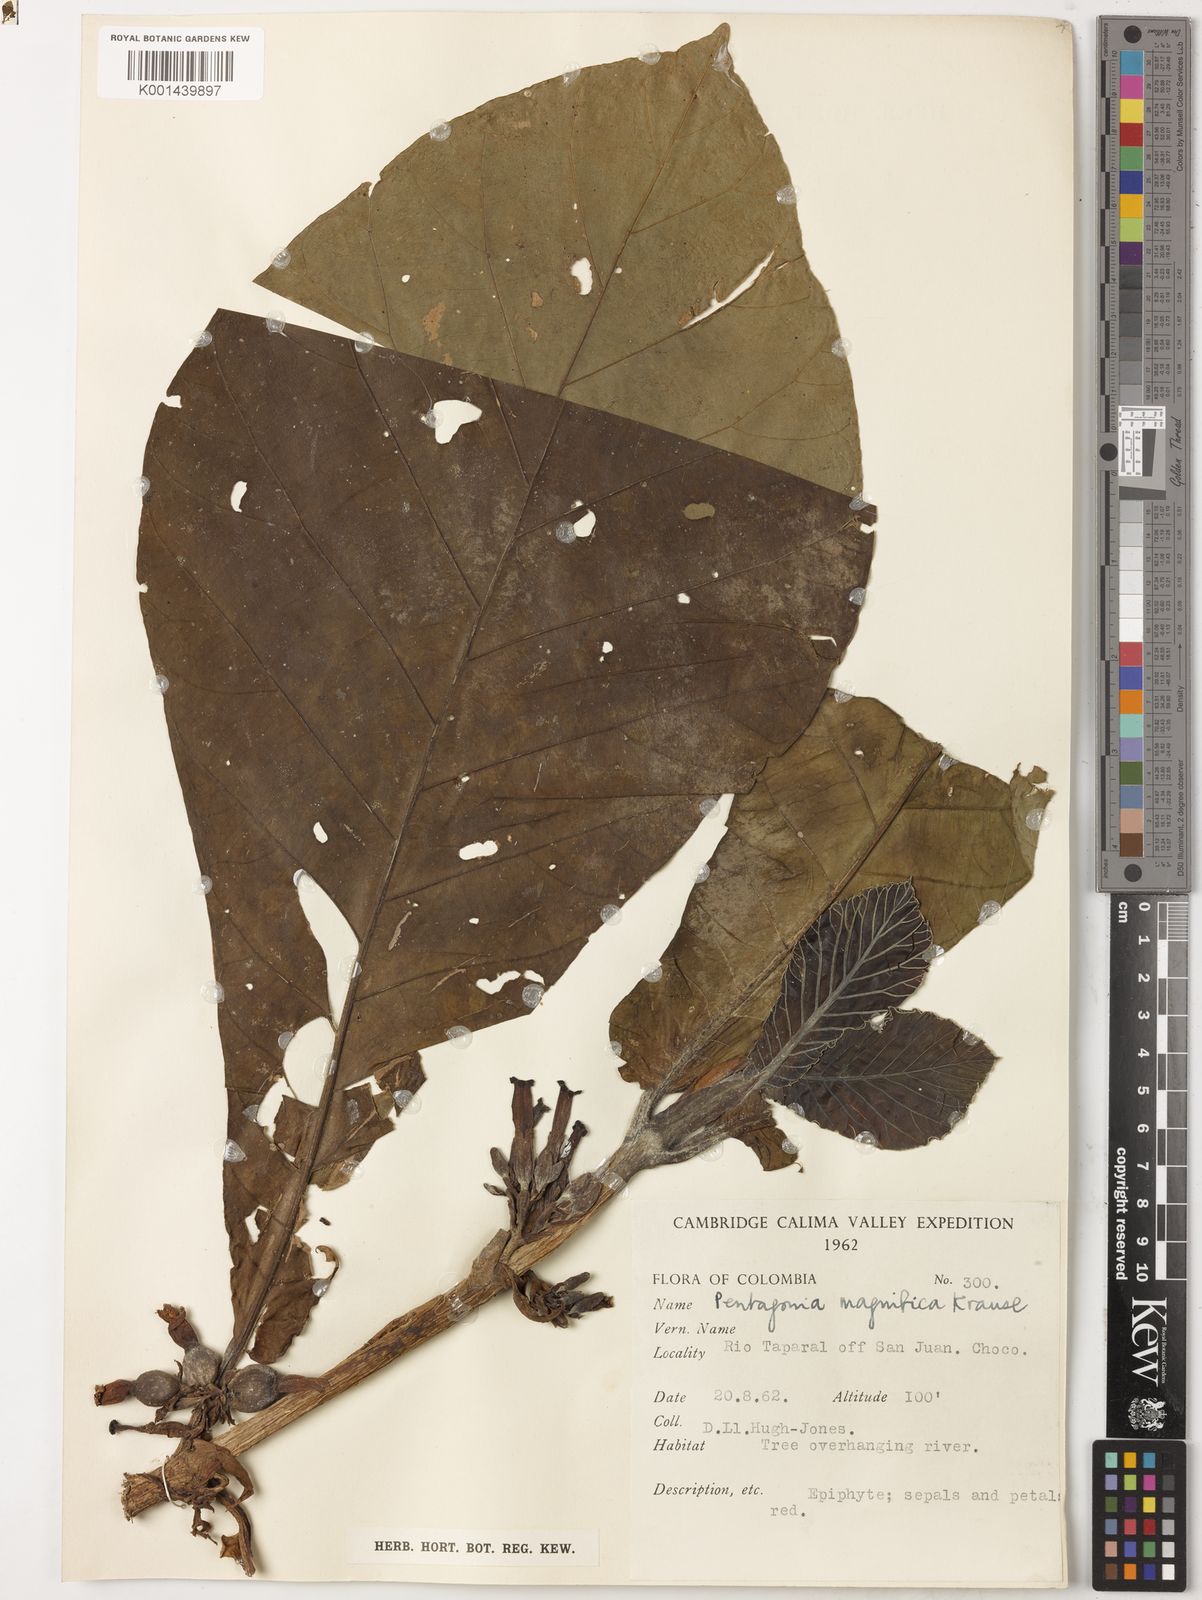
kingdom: Plantae
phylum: Tracheophyta
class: Magnoliopsida
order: Gentianales
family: Rubiaceae
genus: Pentagonia
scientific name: Pentagonia magnifica
